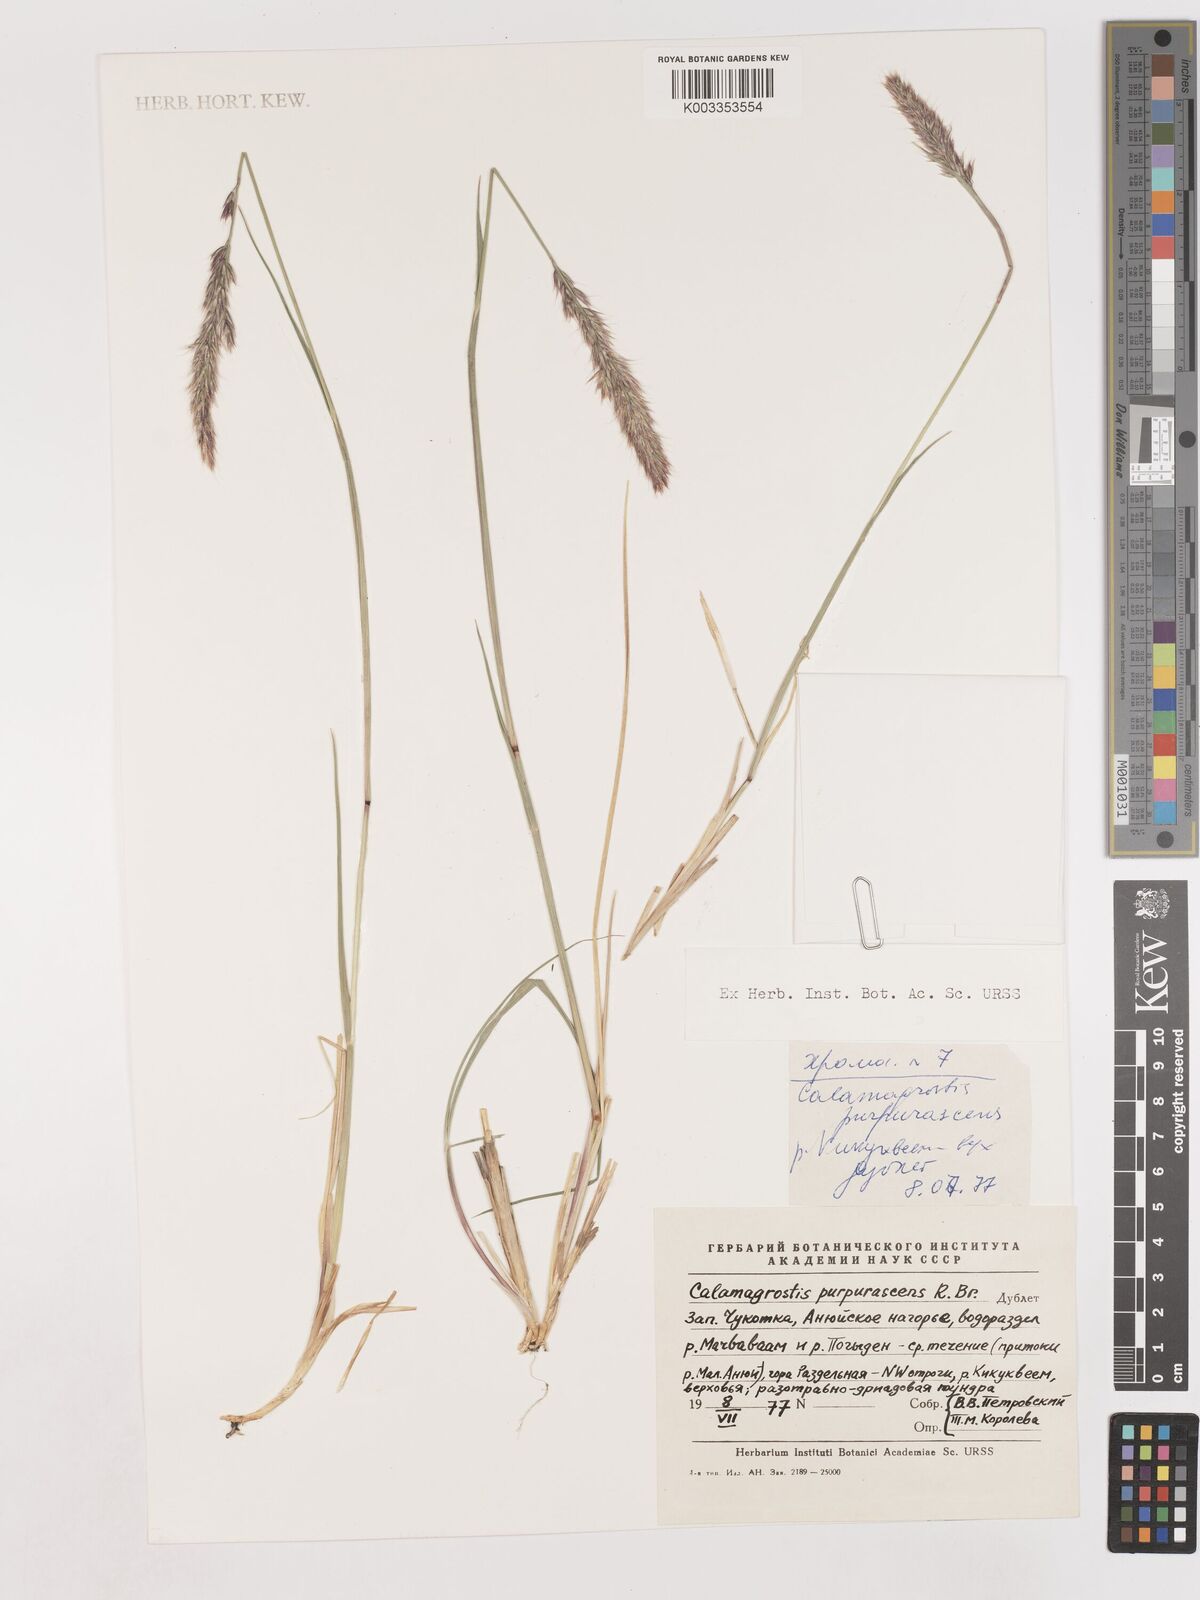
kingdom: Plantae
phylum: Tracheophyta
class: Liliopsida
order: Poales
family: Poaceae
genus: Calamagrostis
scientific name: Calamagrostis purpurascens
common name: Purple reedgrass
